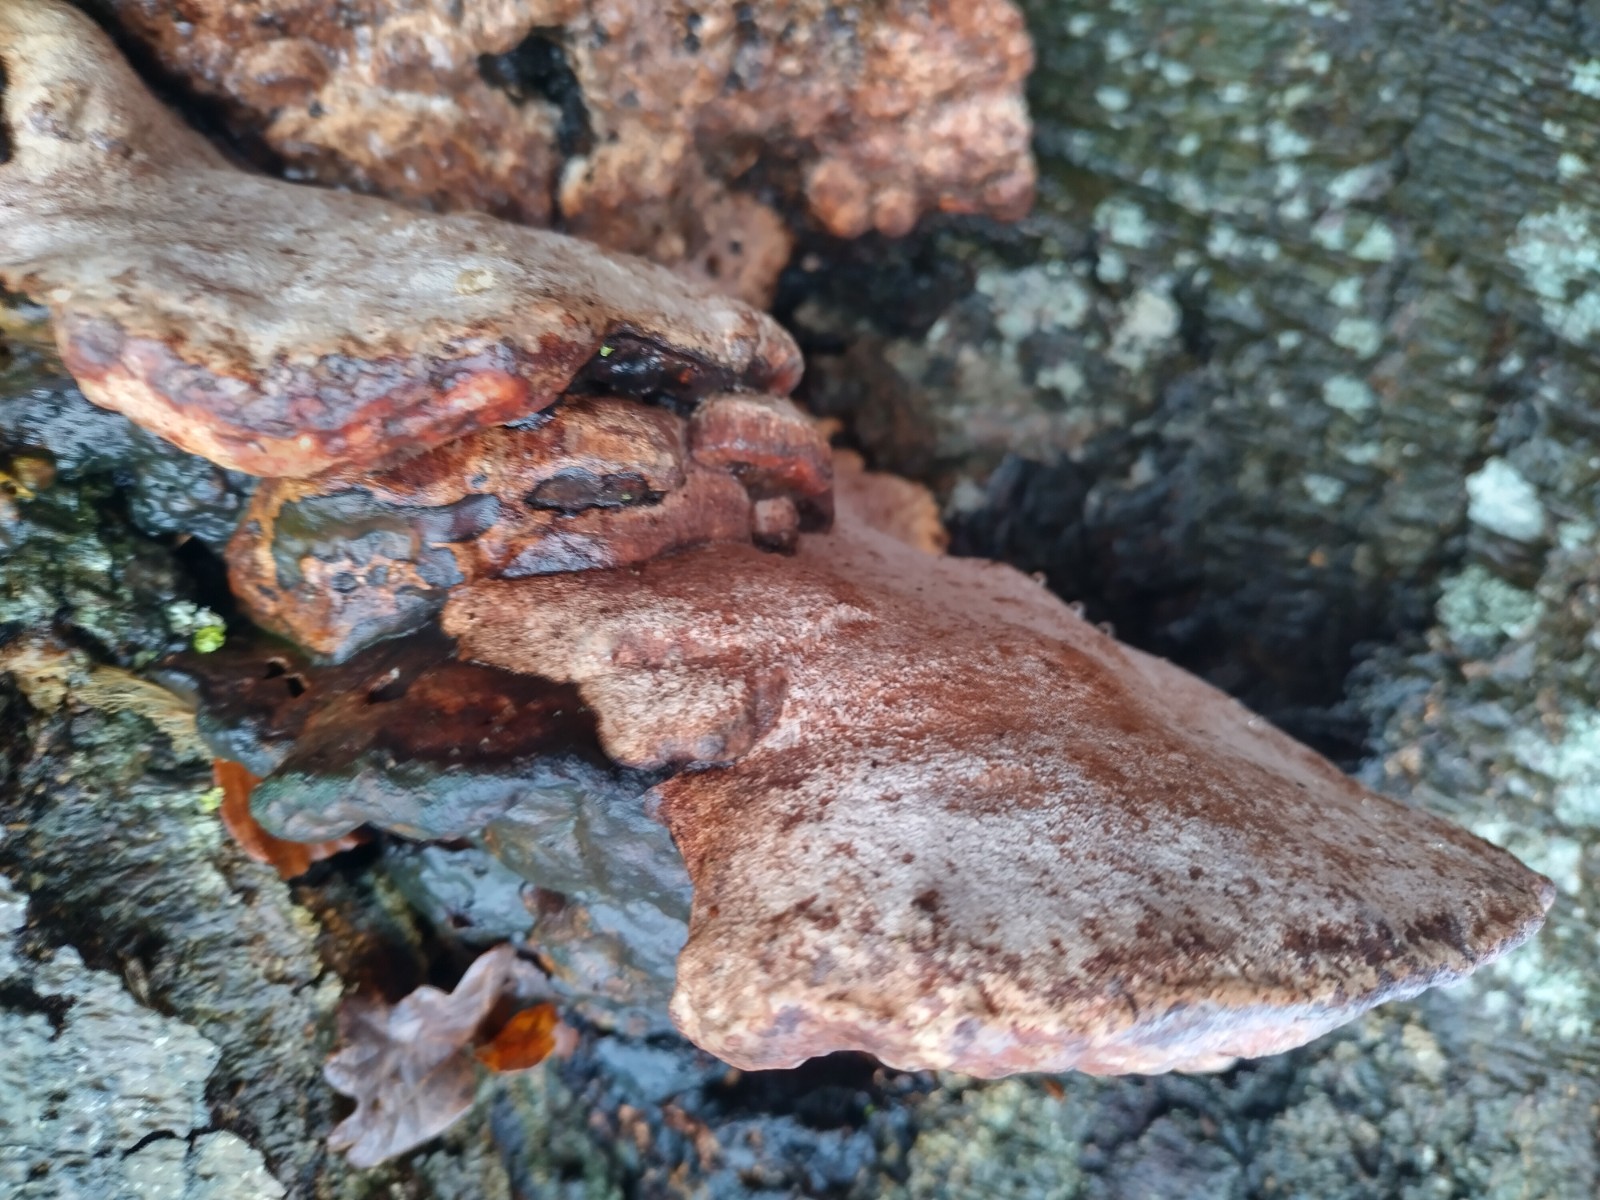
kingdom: Fungi
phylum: Basidiomycota
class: Agaricomycetes
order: Polyporales
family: Polyporaceae
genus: Vanderbylia
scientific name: Vanderbylia fraxinea
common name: stor kanelporesvamp
